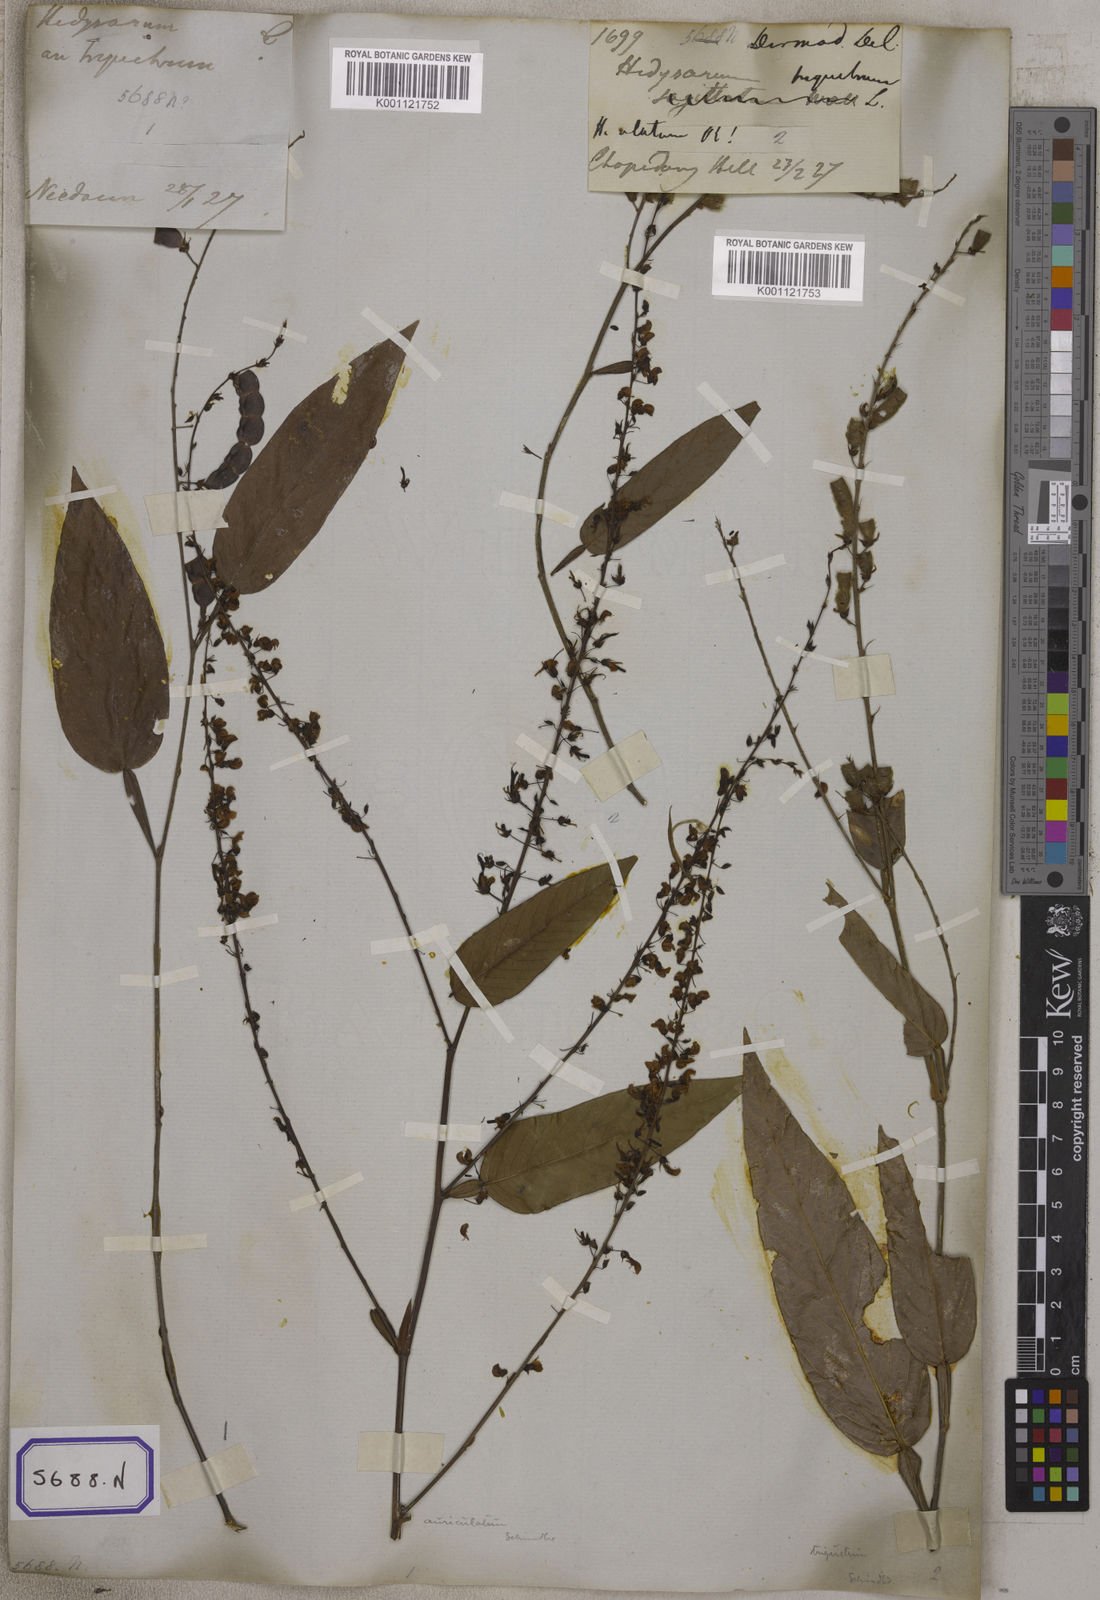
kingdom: Plantae
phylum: Tracheophyta
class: Magnoliopsida
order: Fabales
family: Fabaceae
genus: Tadehagi
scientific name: Tadehagi triquetrum
